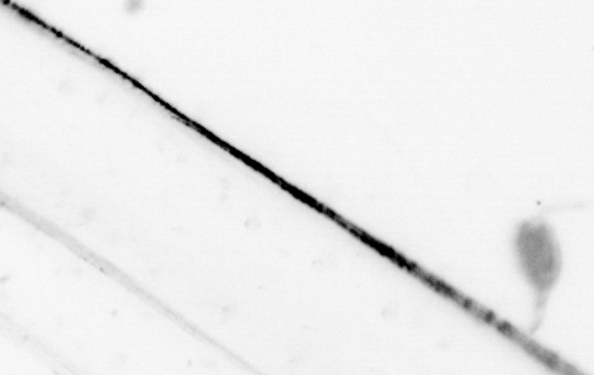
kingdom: Animalia
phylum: Chaetognatha
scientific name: Chaetognatha
